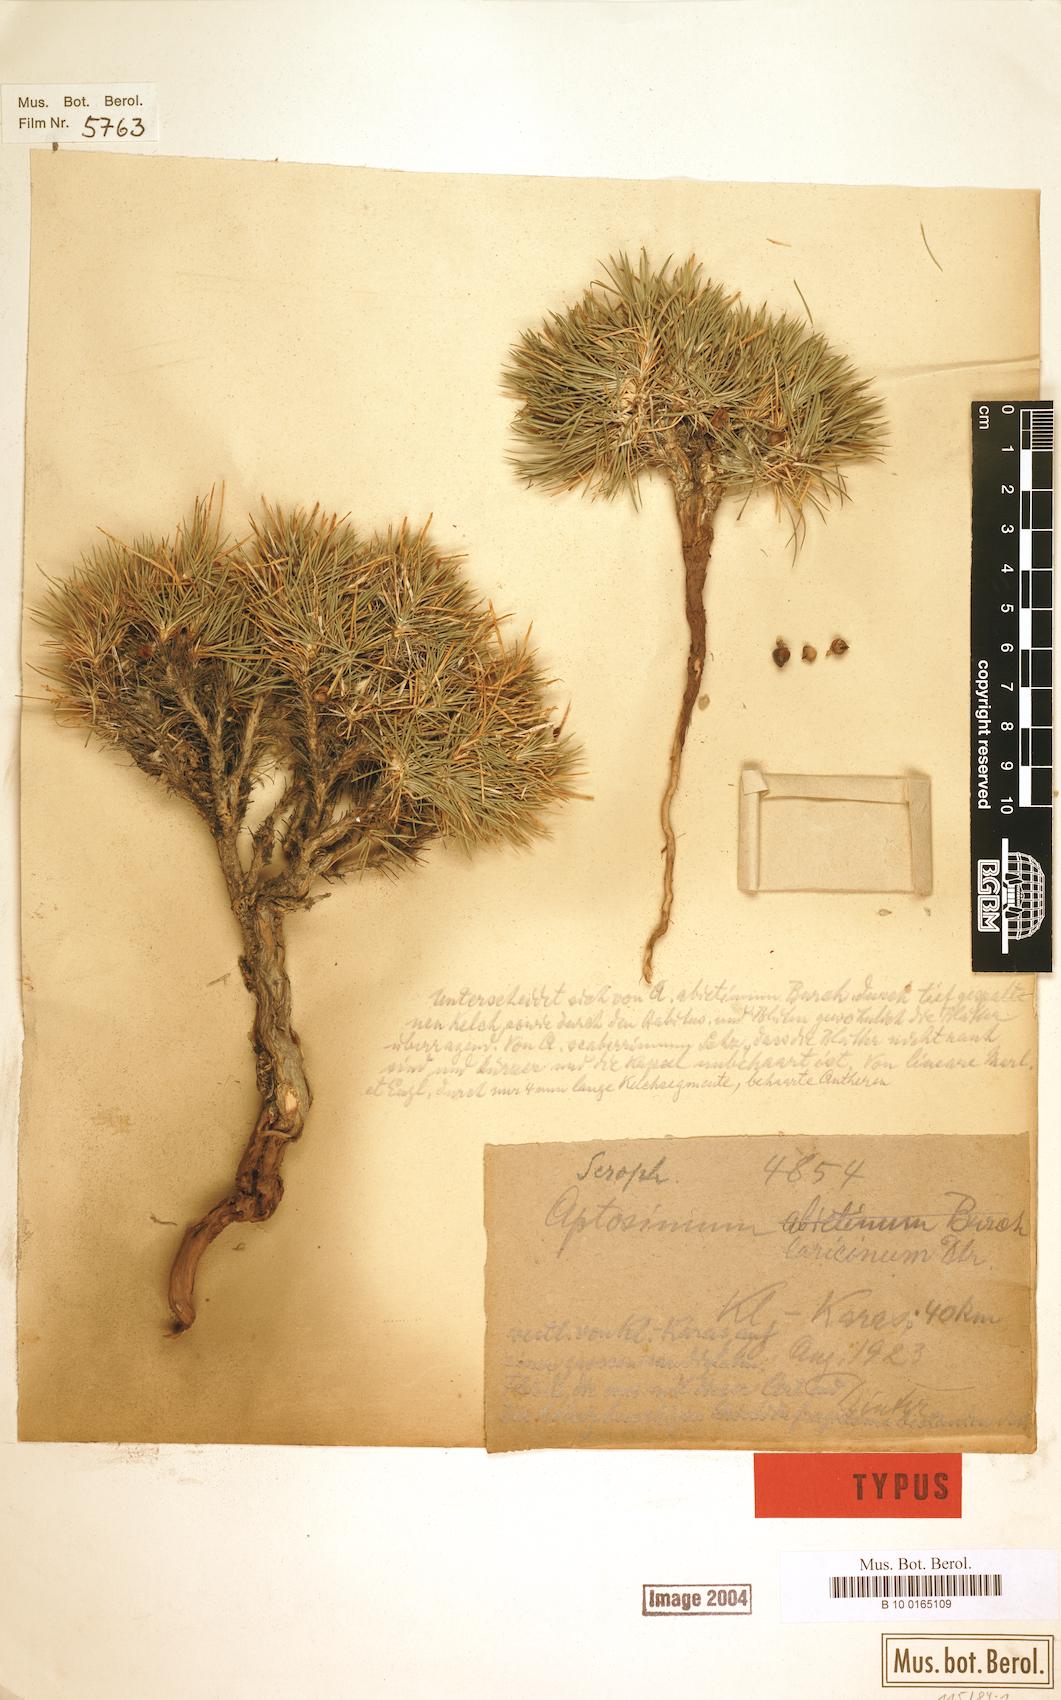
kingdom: Plantae
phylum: Tracheophyta
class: Magnoliopsida
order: Lamiales
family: Scrophulariaceae
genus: Aptosimum
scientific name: Aptosimum spinescens
